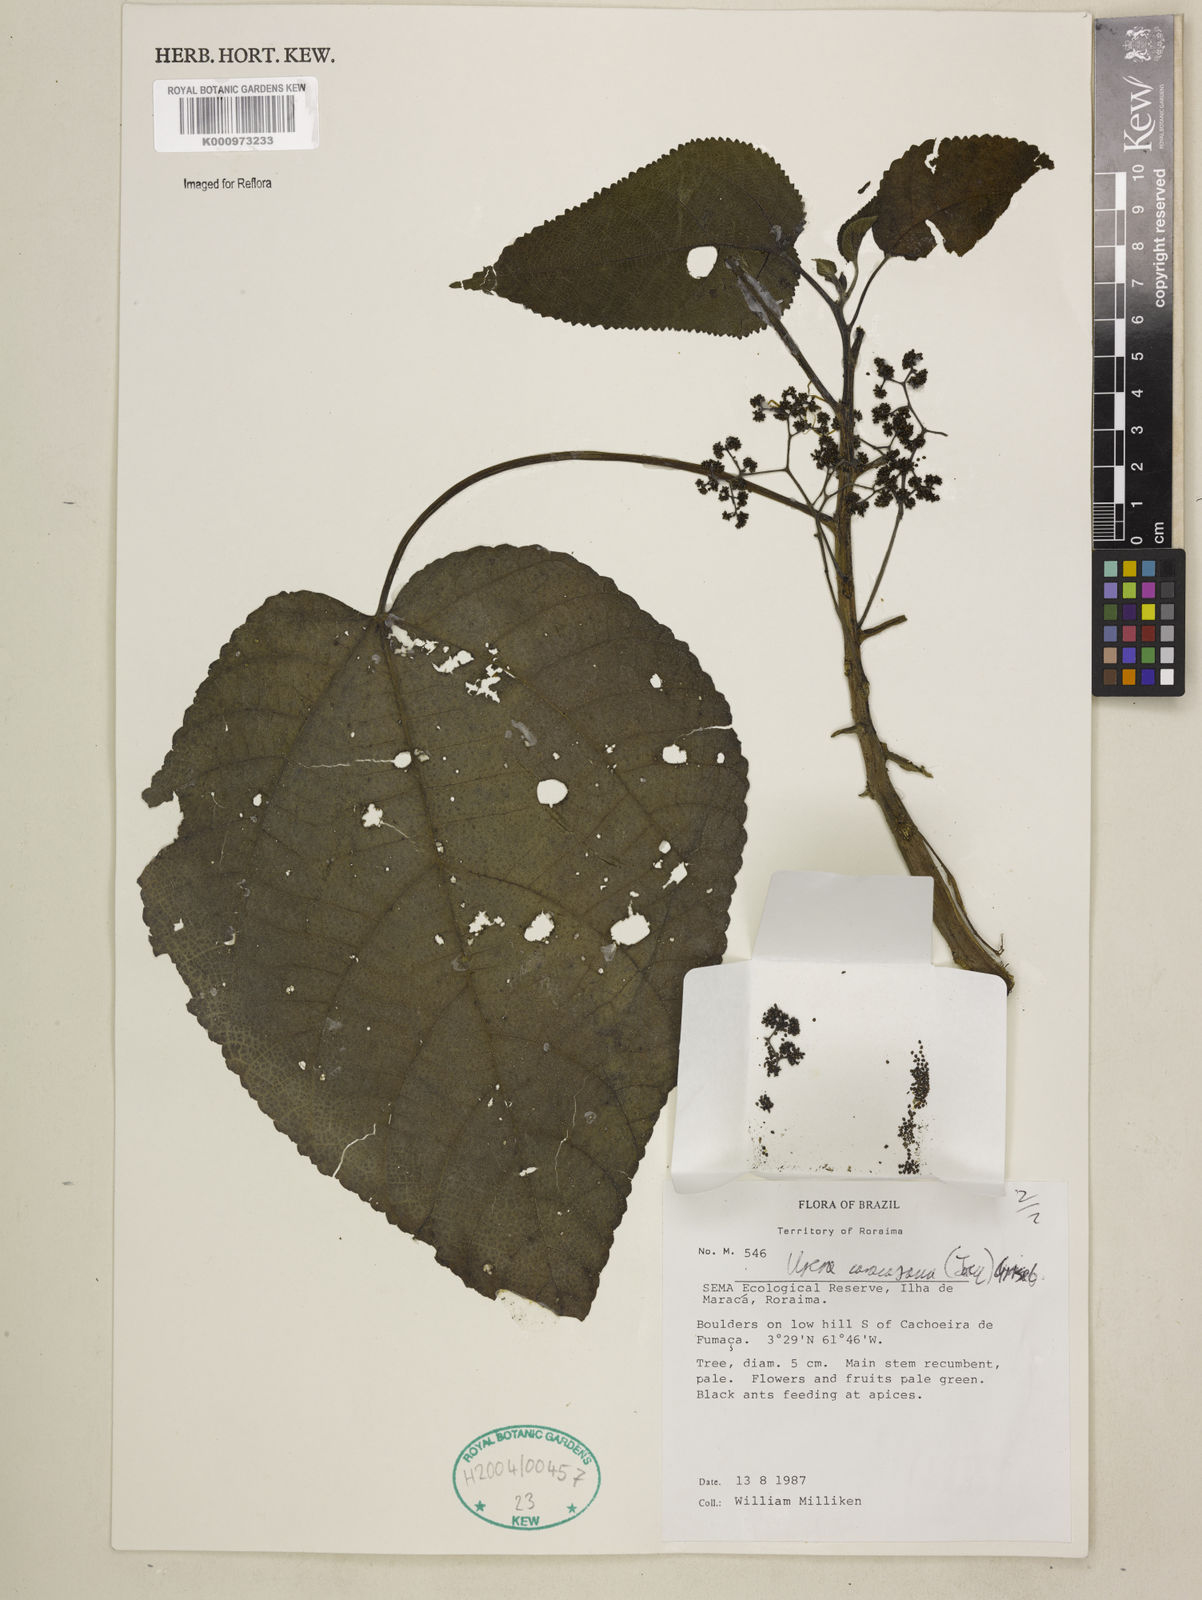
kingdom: Plantae
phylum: Tracheophyta
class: Magnoliopsida
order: Rosales
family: Urticaceae
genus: Urera
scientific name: Urera caracasana
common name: Flameberry
